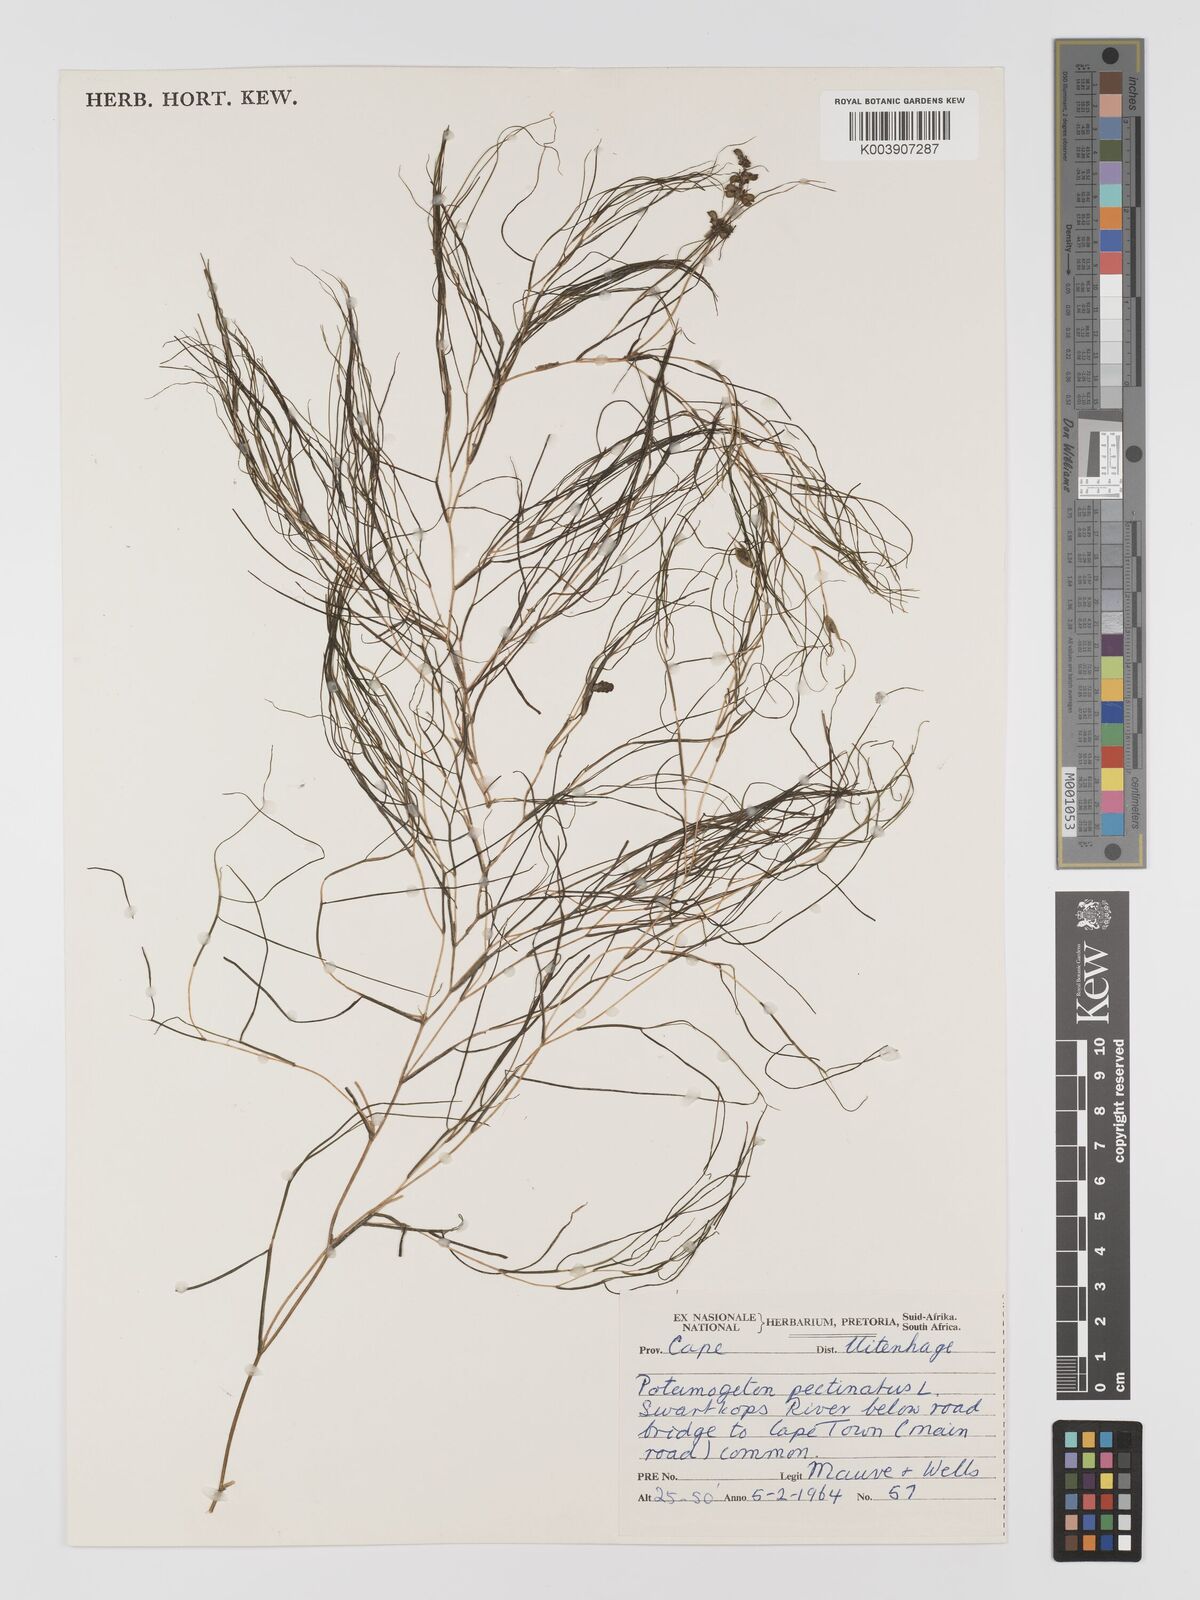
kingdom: Plantae
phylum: Tracheophyta
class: Liliopsida
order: Alismatales
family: Potamogetonaceae
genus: Stuckenia
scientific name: Stuckenia pectinata
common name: Sago pondweed
